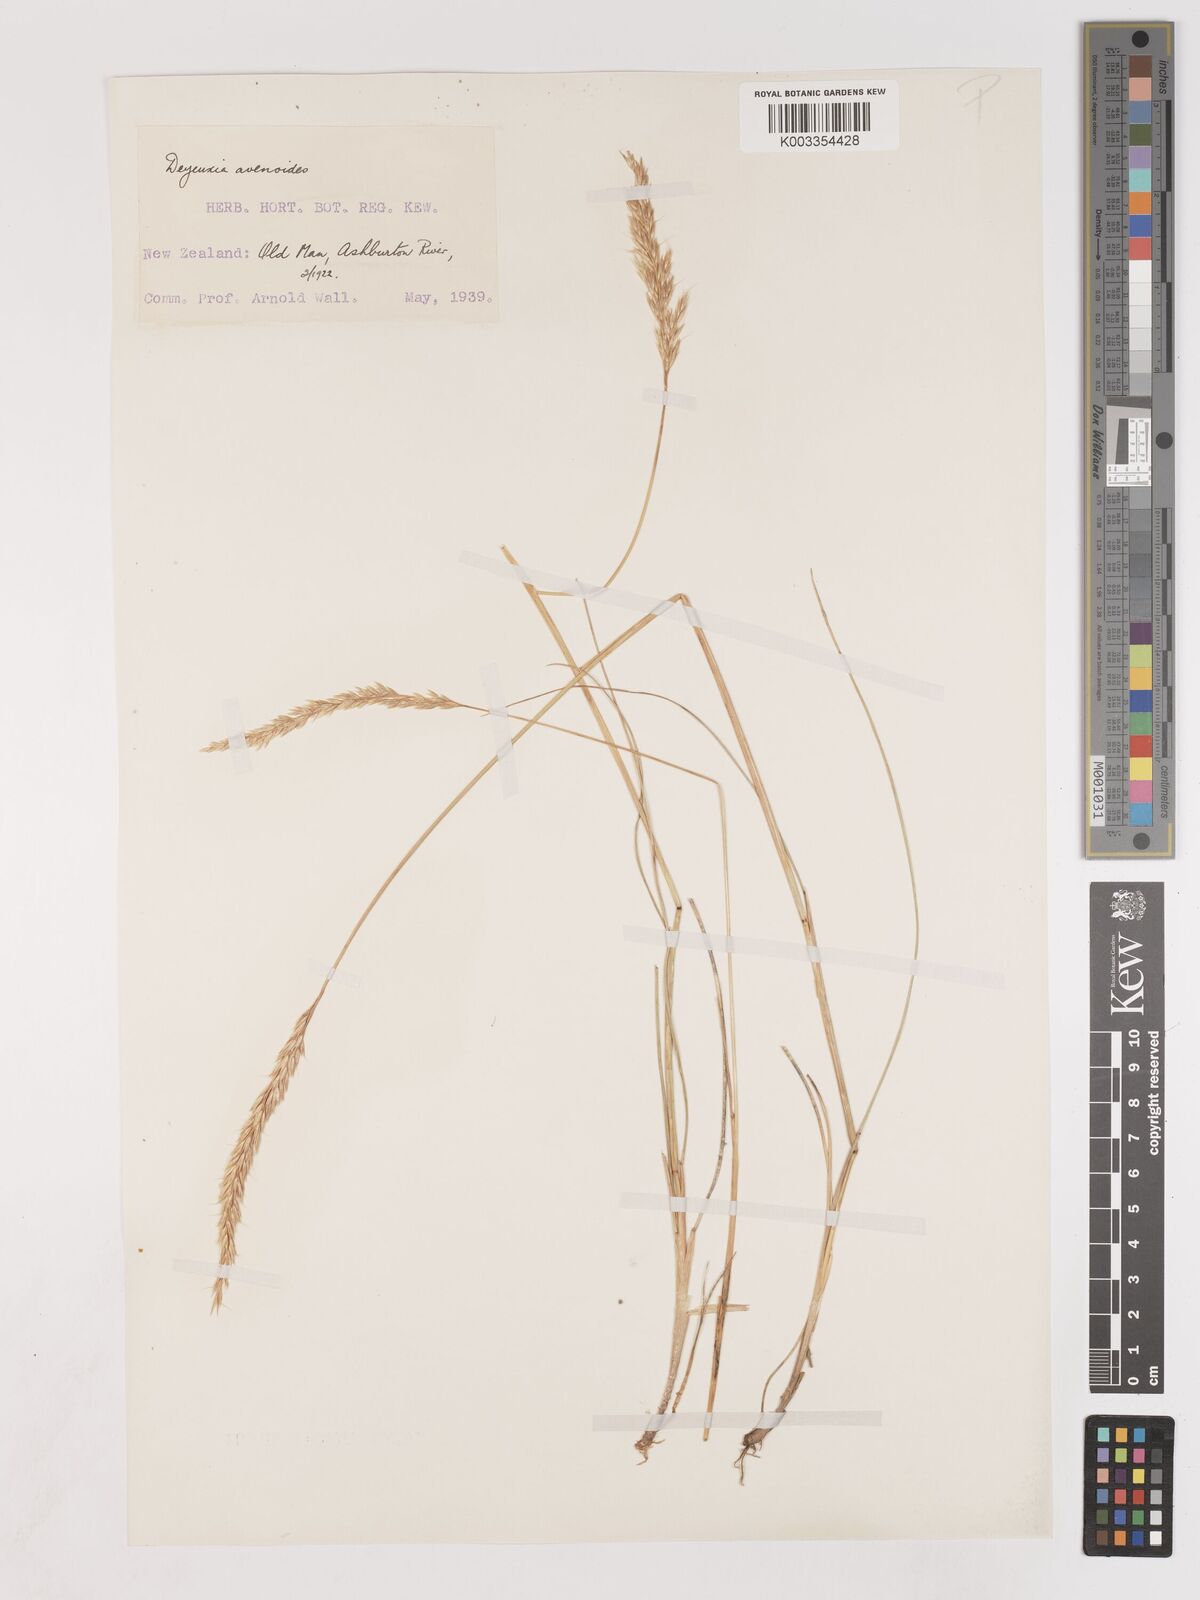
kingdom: Plantae
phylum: Tracheophyta
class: Liliopsida
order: Poales
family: Poaceae
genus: Calamagrostis
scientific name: Calamagrostis avenoides
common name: Mountain oat grass
